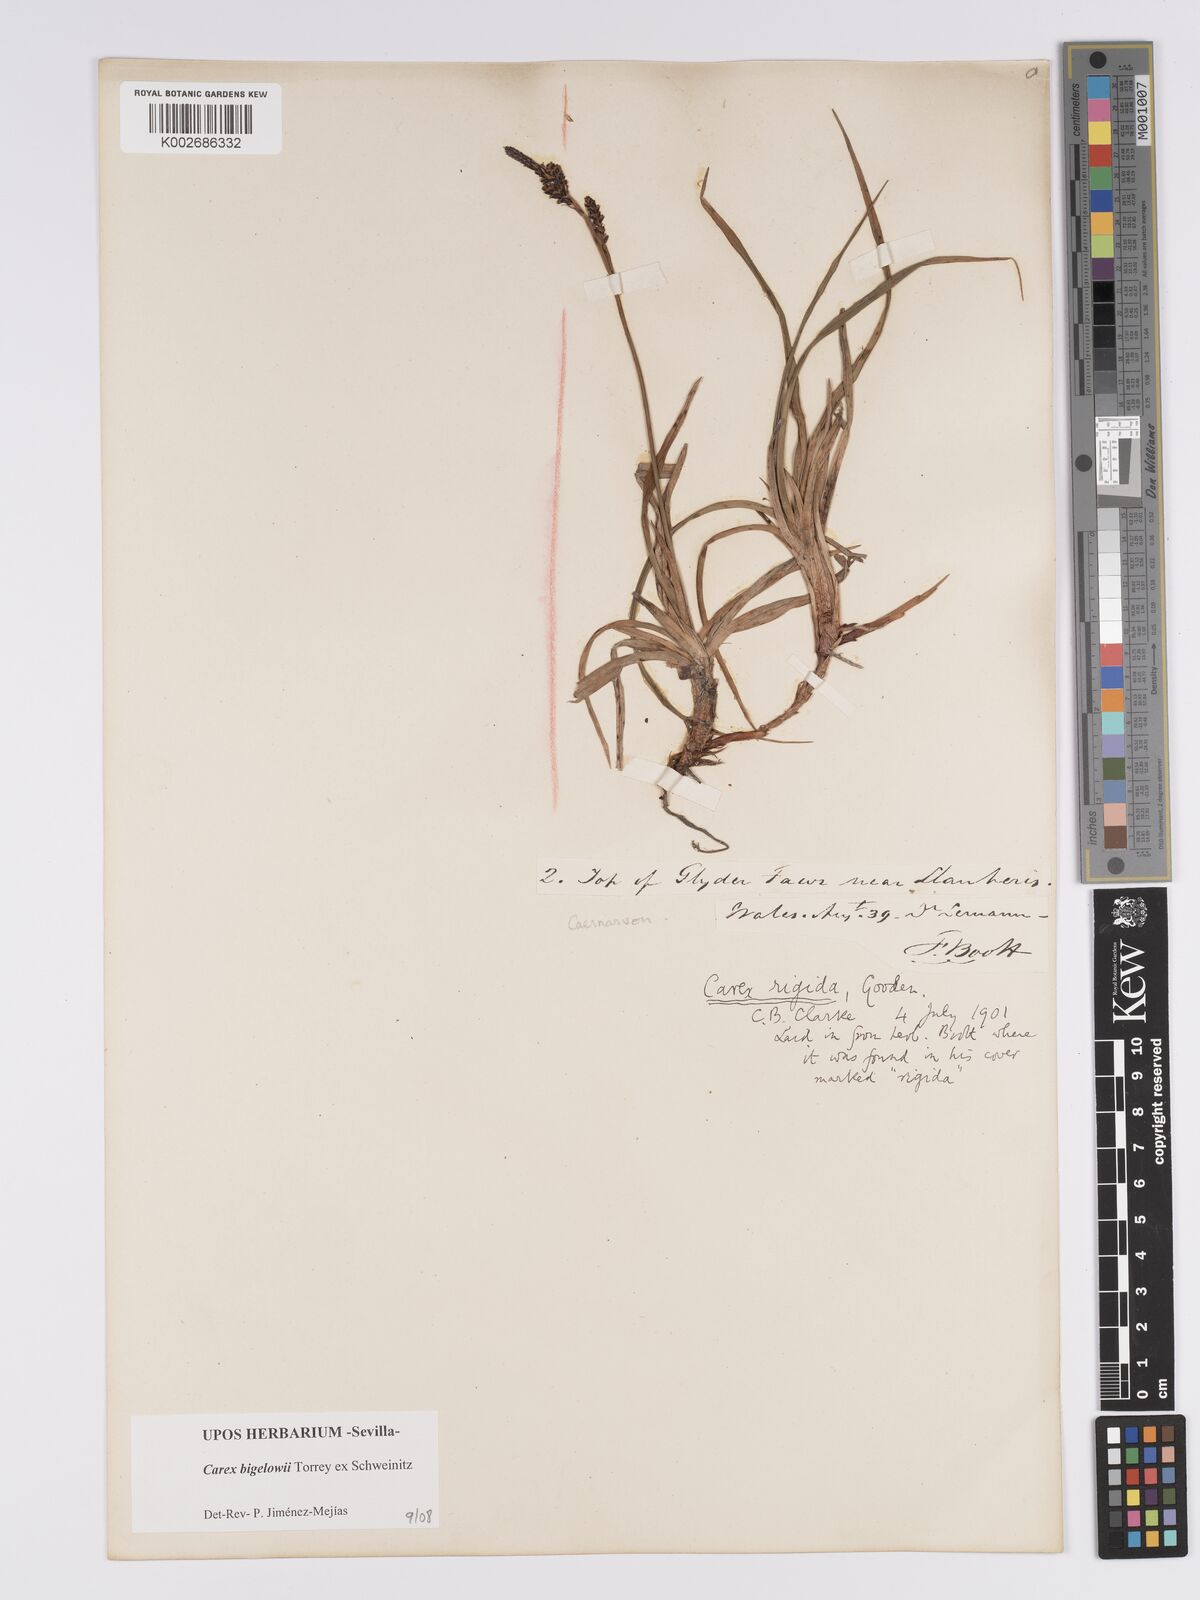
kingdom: Plantae
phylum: Tracheophyta
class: Liliopsida
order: Poales
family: Cyperaceae
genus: Carex
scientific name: Carex bigelowii
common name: Stiff sedge
